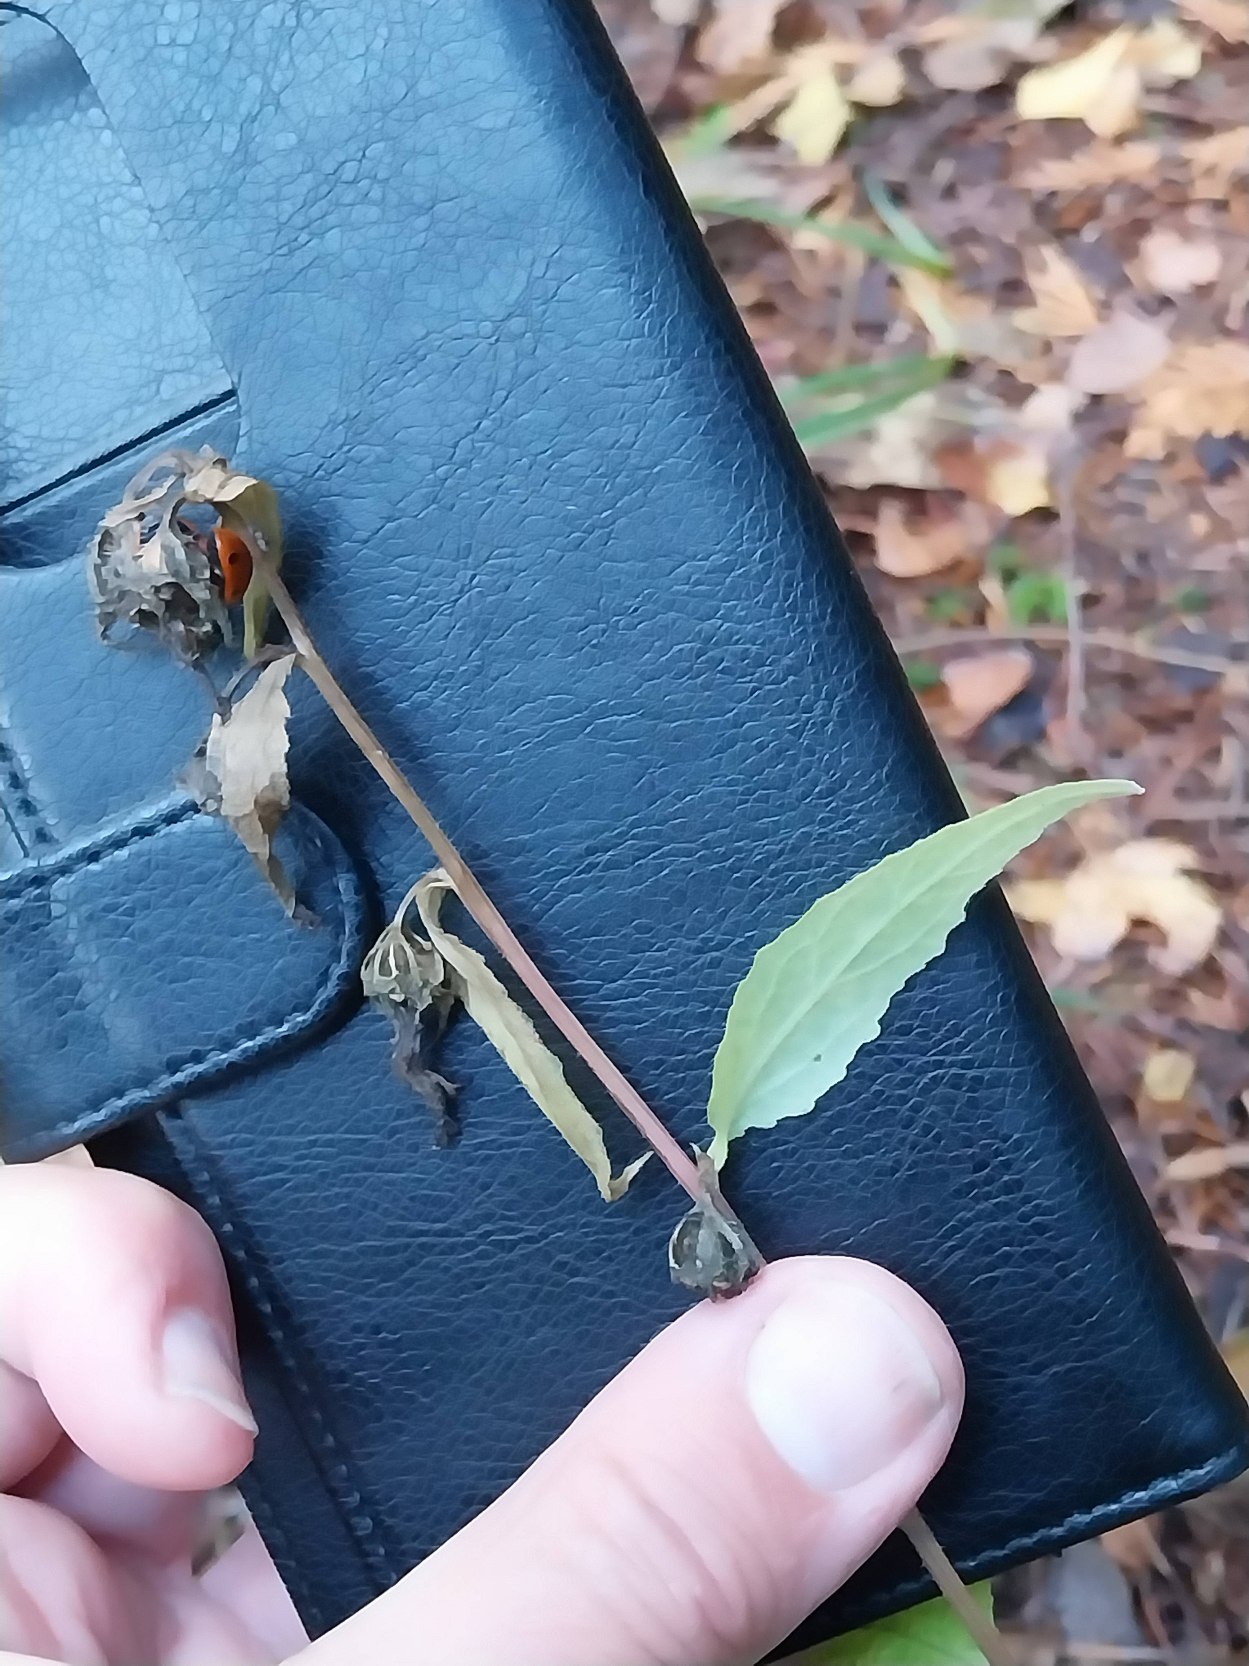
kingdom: Plantae
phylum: Tracheophyta
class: Magnoliopsida
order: Asterales
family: Campanulaceae
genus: Campanula
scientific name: Campanula trachelium
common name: Nælde-klokke
